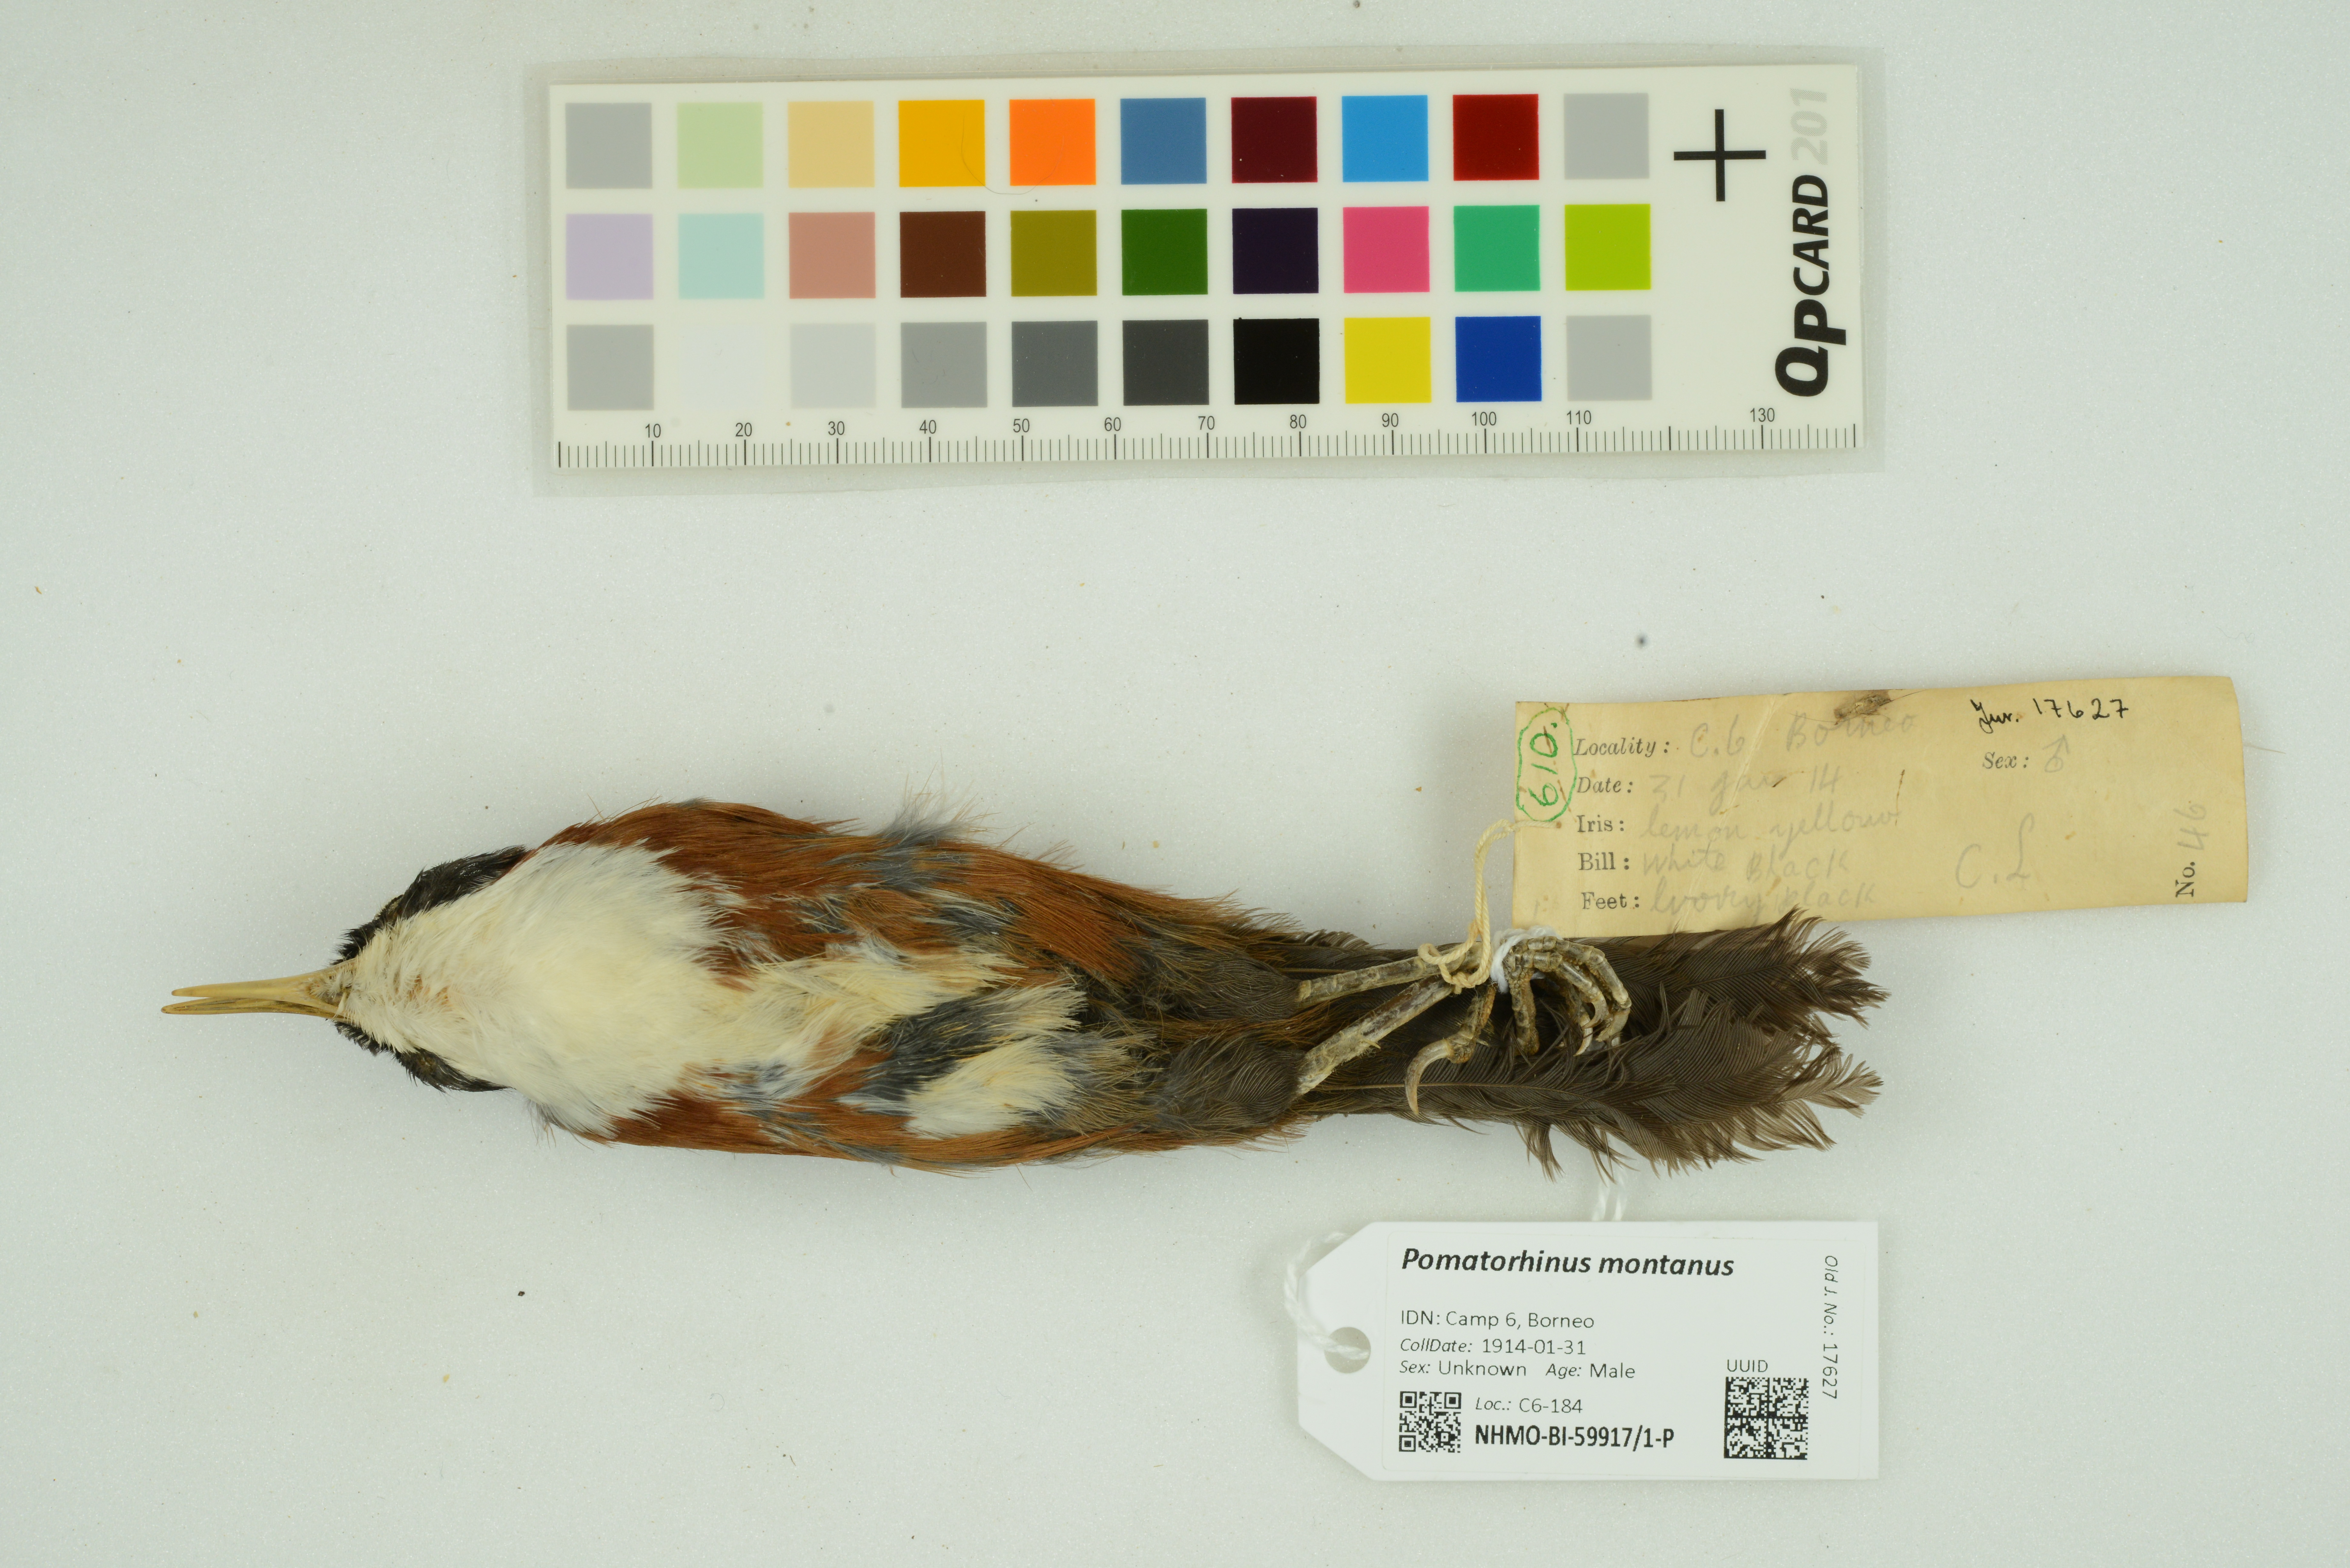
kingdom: Animalia
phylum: Chordata
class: Aves
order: Passeriformes
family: Timaliidae
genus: Pomatorhinus
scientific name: Pomatorhinus montanus
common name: Chestnut-backed scimitar babbler
